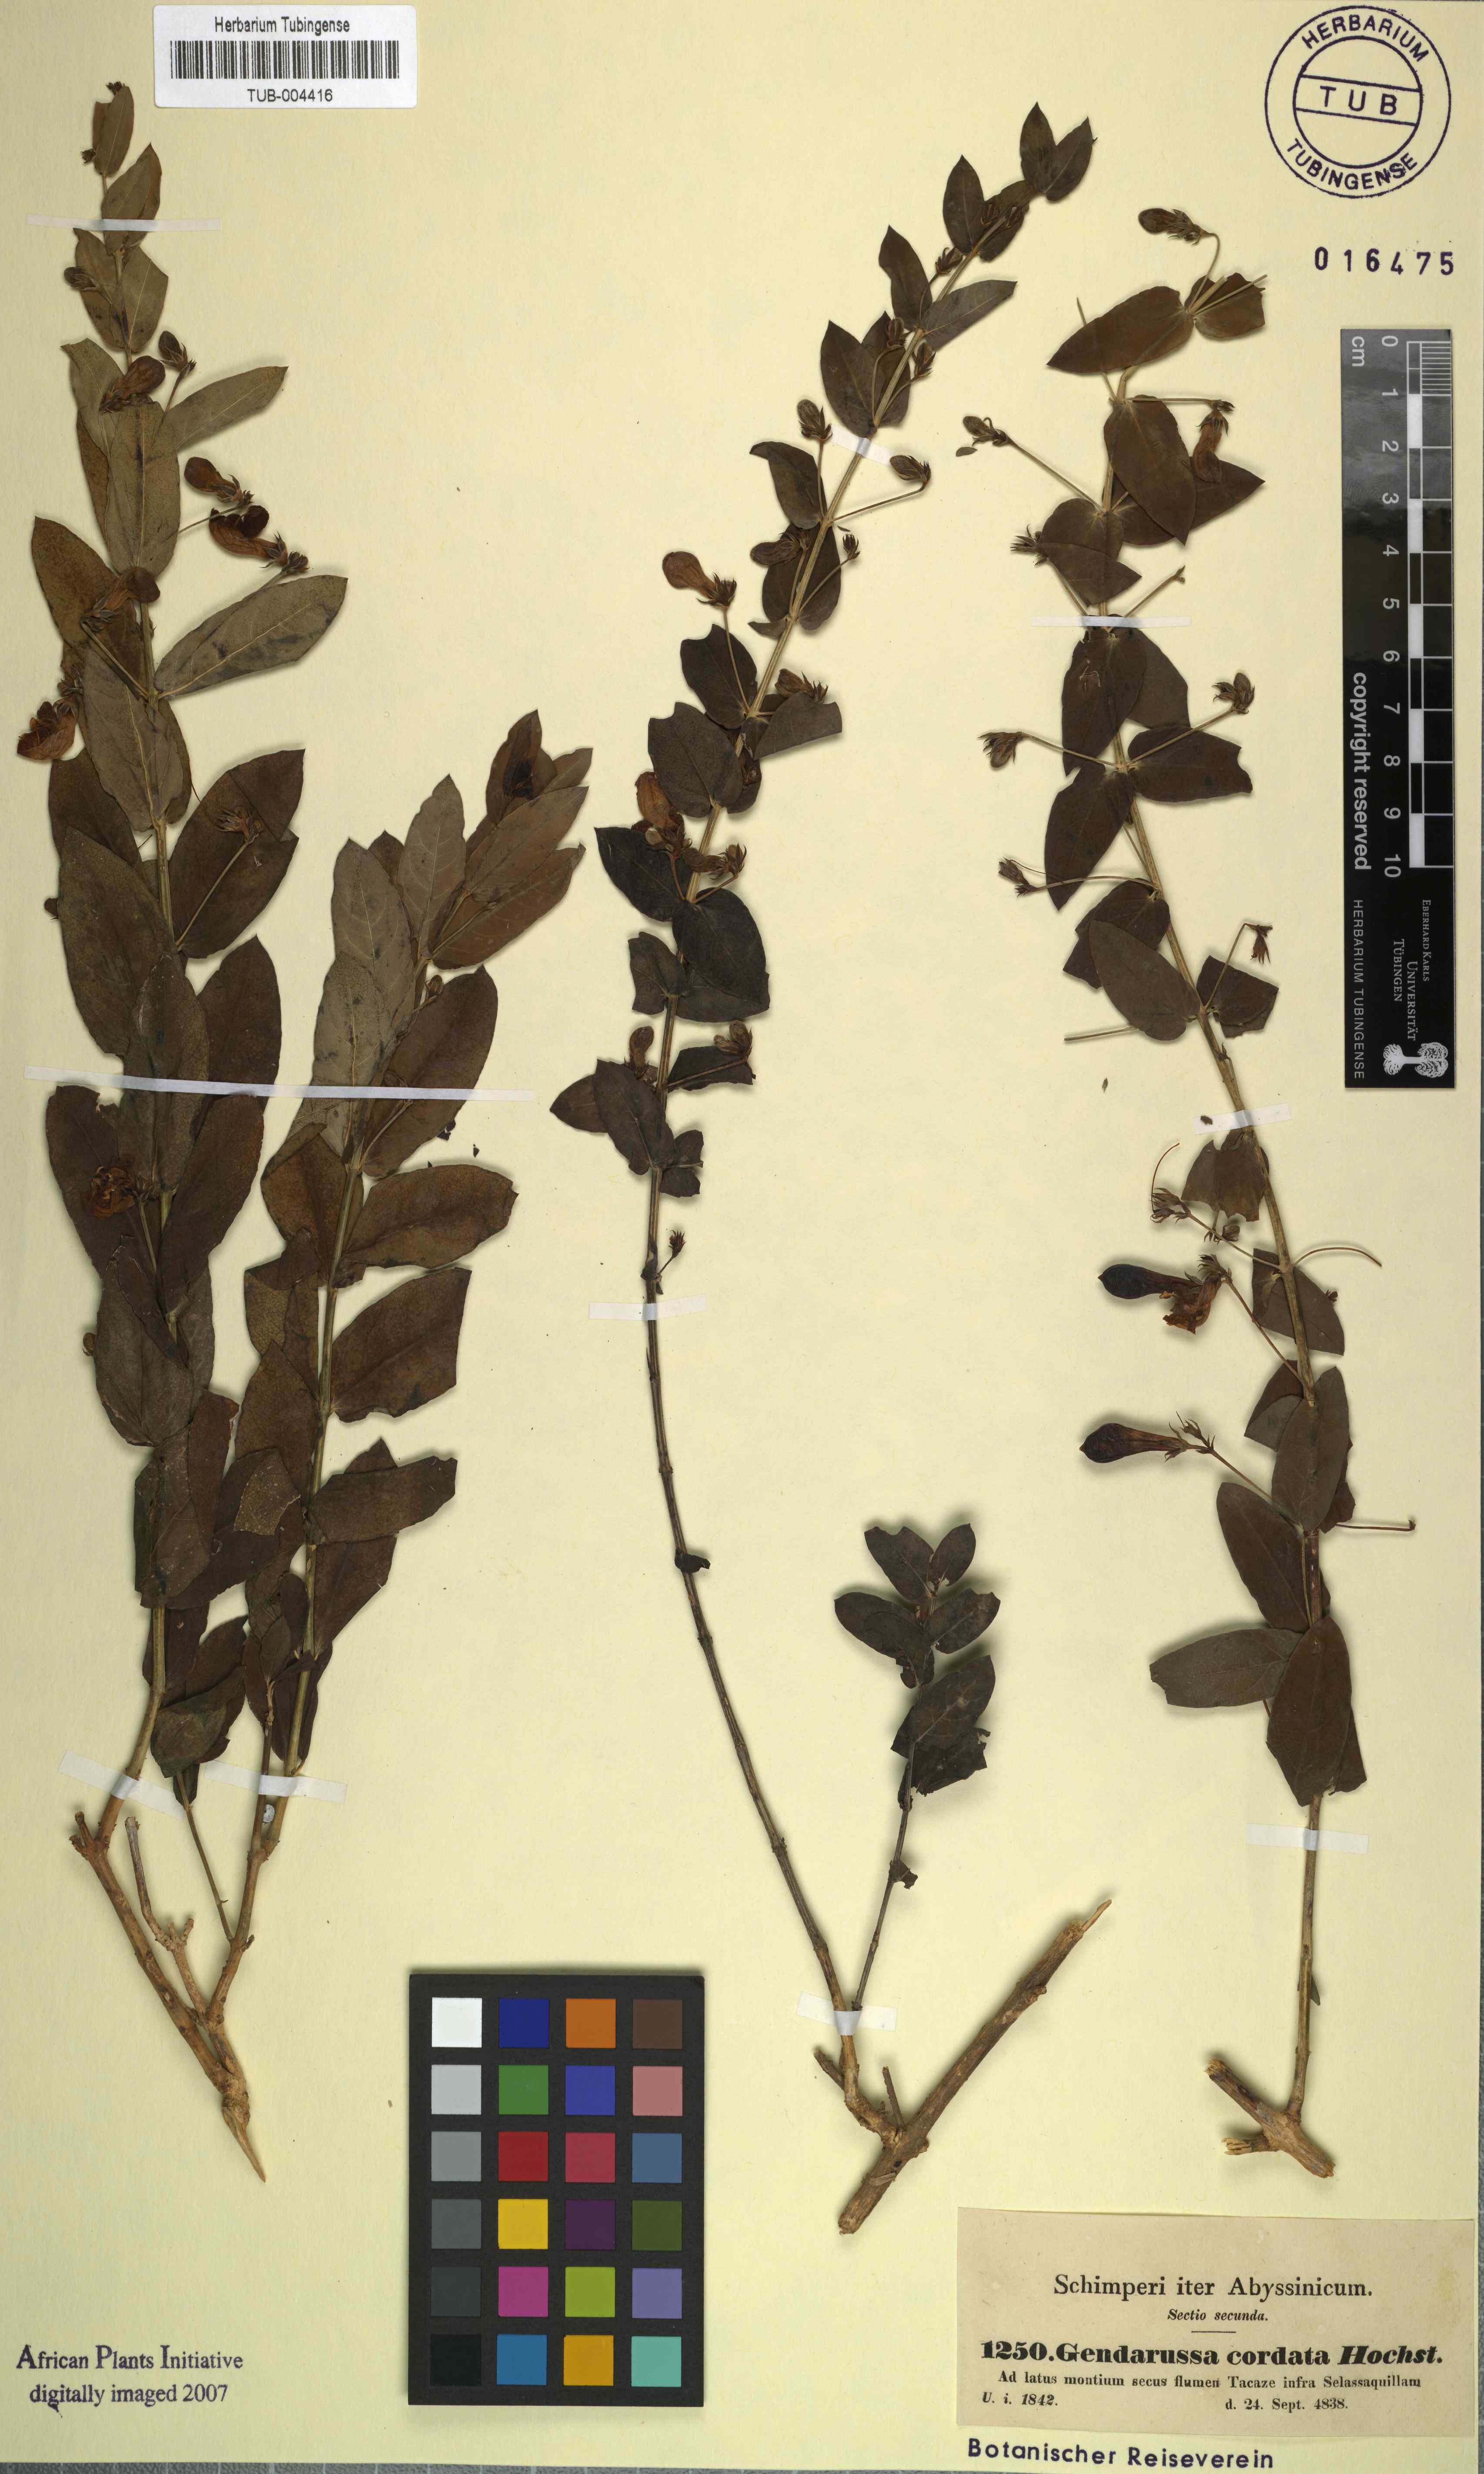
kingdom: Plantae
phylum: Tracheophyta
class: Magnoliopsida
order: Lamiales
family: Acanthaceae
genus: Justicia
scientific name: Justicia cordata
